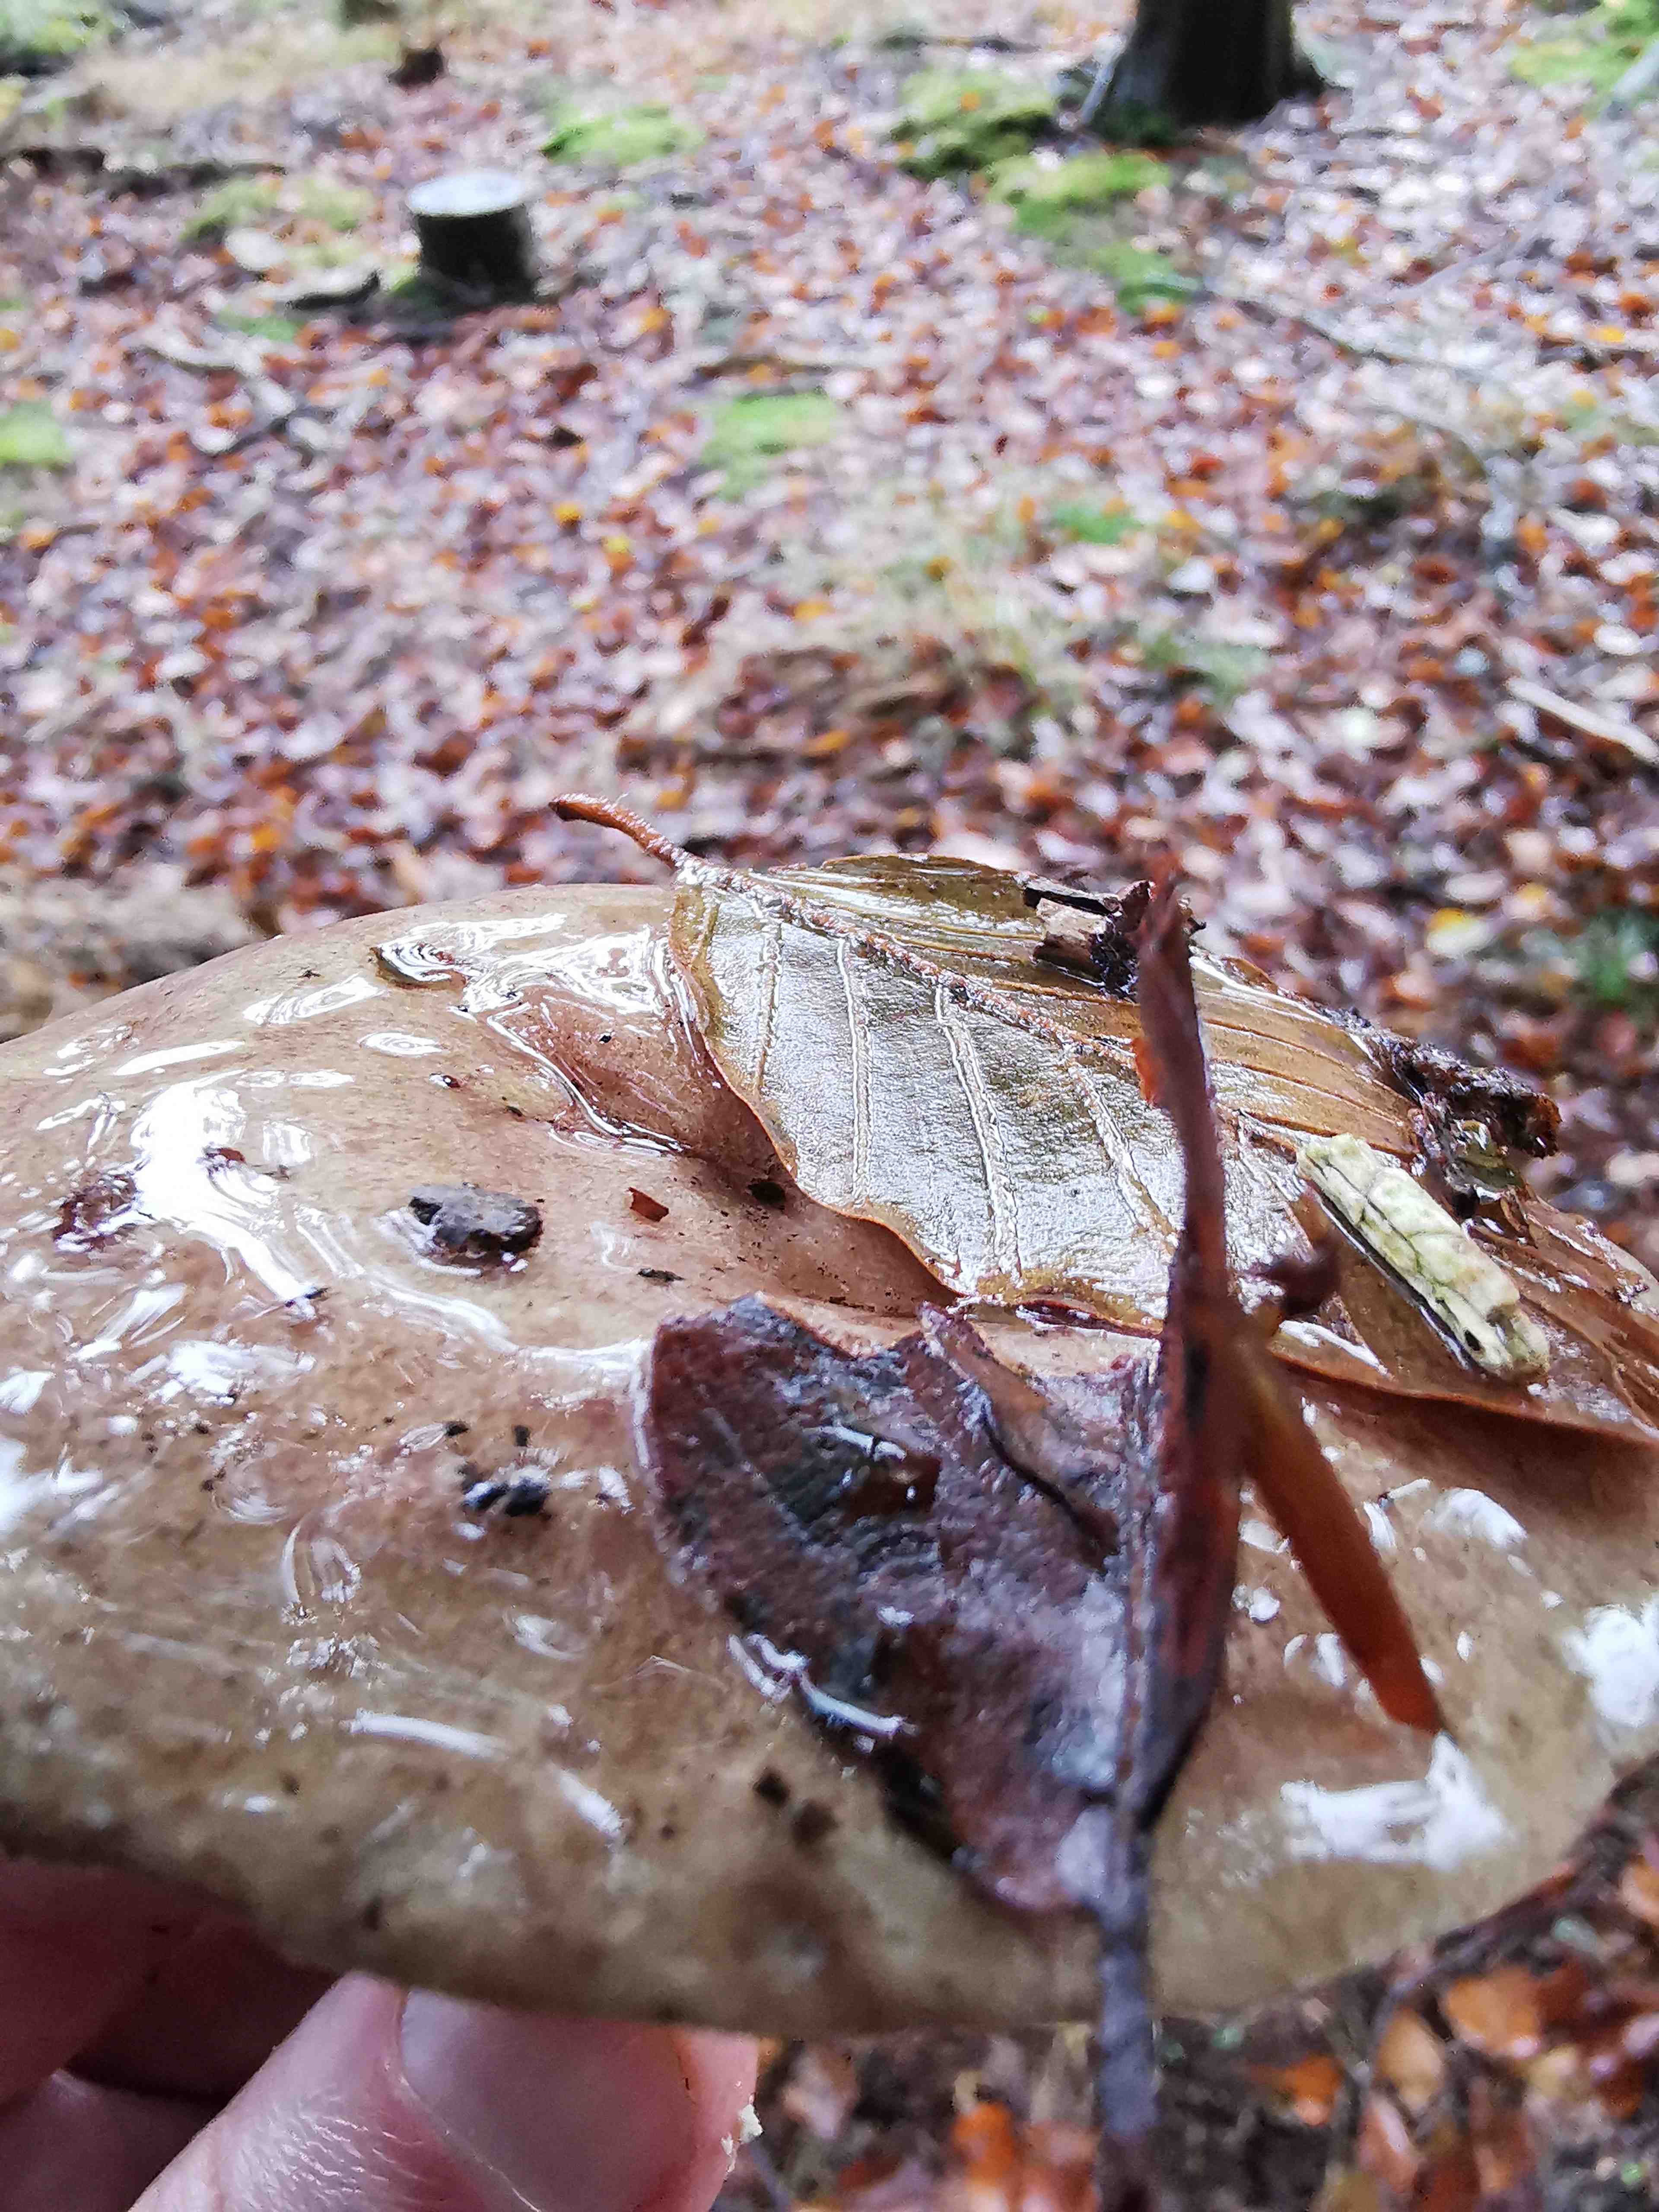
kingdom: Fungi
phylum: Basidiomycota
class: Agaricomycetes
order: Russulales
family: Russulaceae
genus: Lactarius
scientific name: Lactarius blennius
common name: dråbeplettet mælkehat
